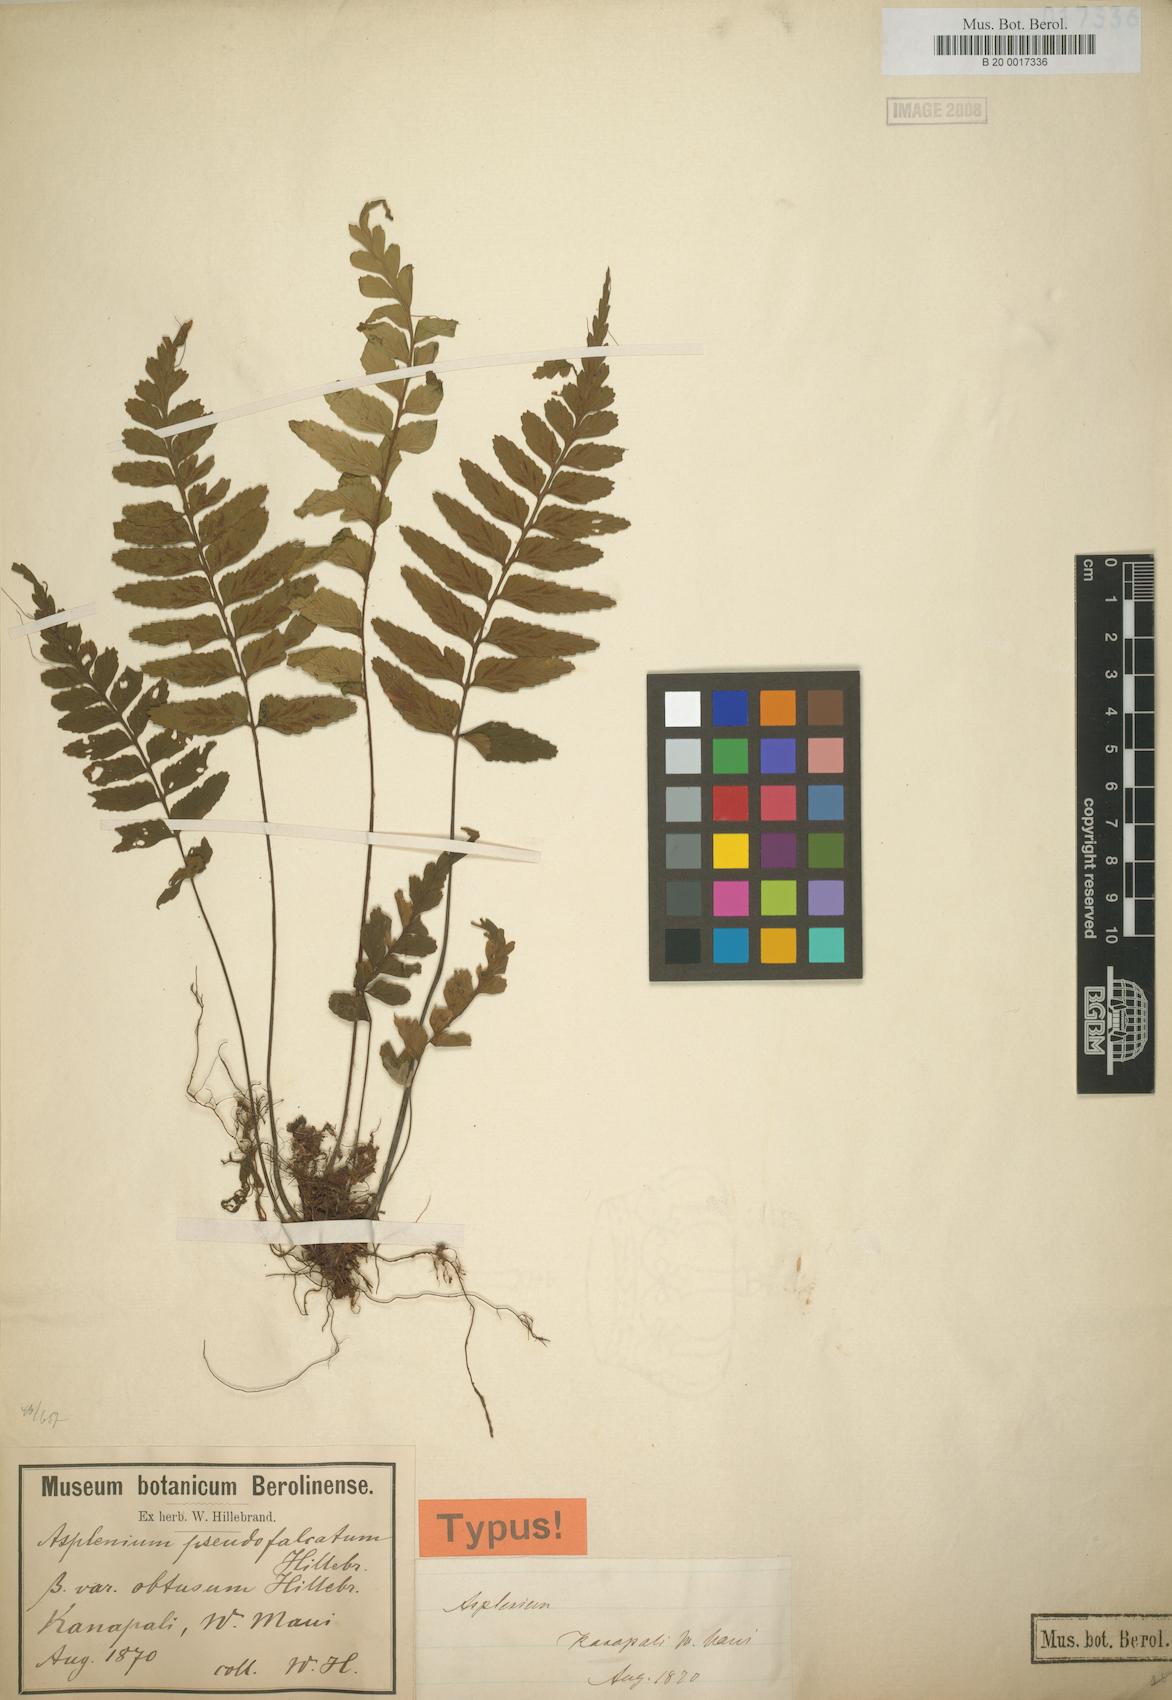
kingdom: Plantae
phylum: Tracheophyta
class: Polypodiopsida
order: Polypodiales
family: Aspleniaceae
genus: Asplenium
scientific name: Asplenium lobulatum
